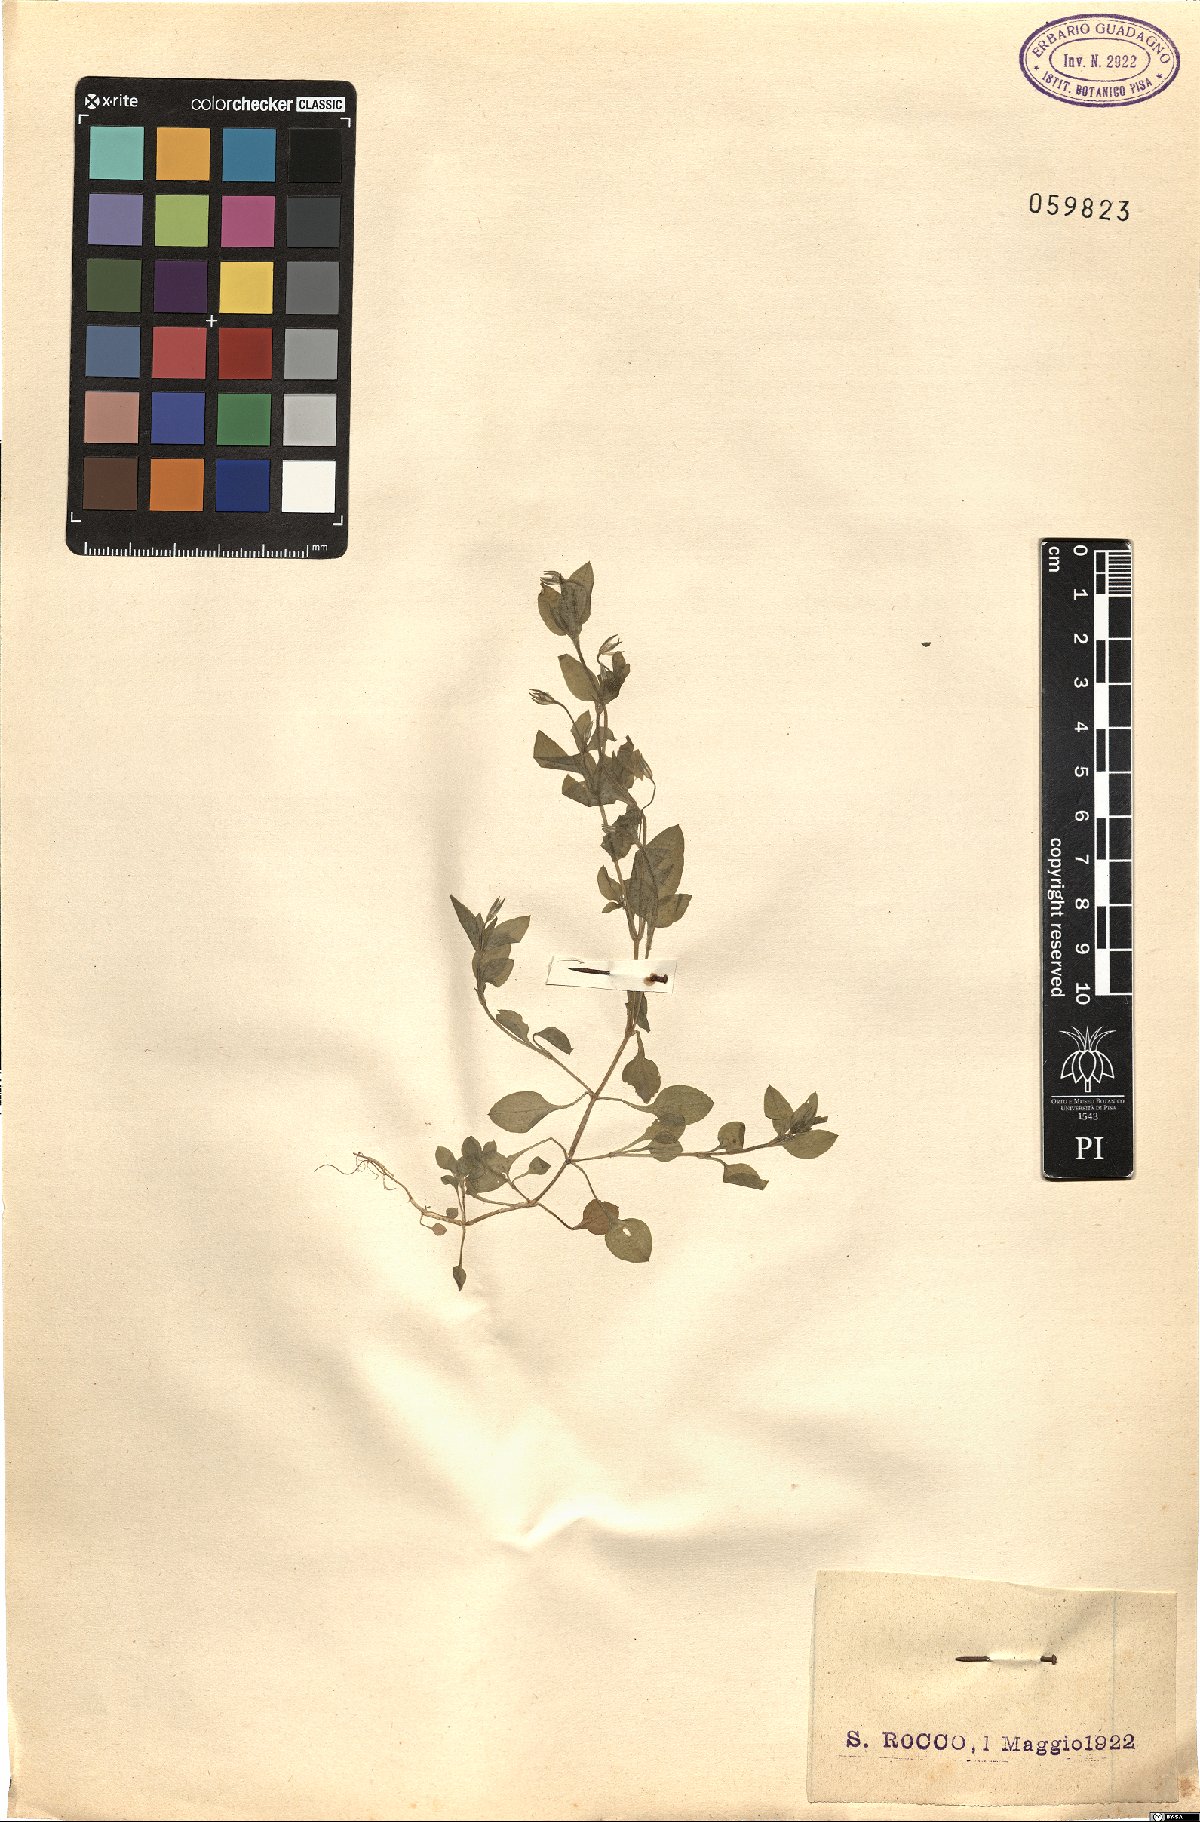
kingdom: Plantae
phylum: Tracheophyta
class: Magnoliopsida
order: Caryophyllales
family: Caryophyllaceae
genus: Stellaria
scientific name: Stellaria
